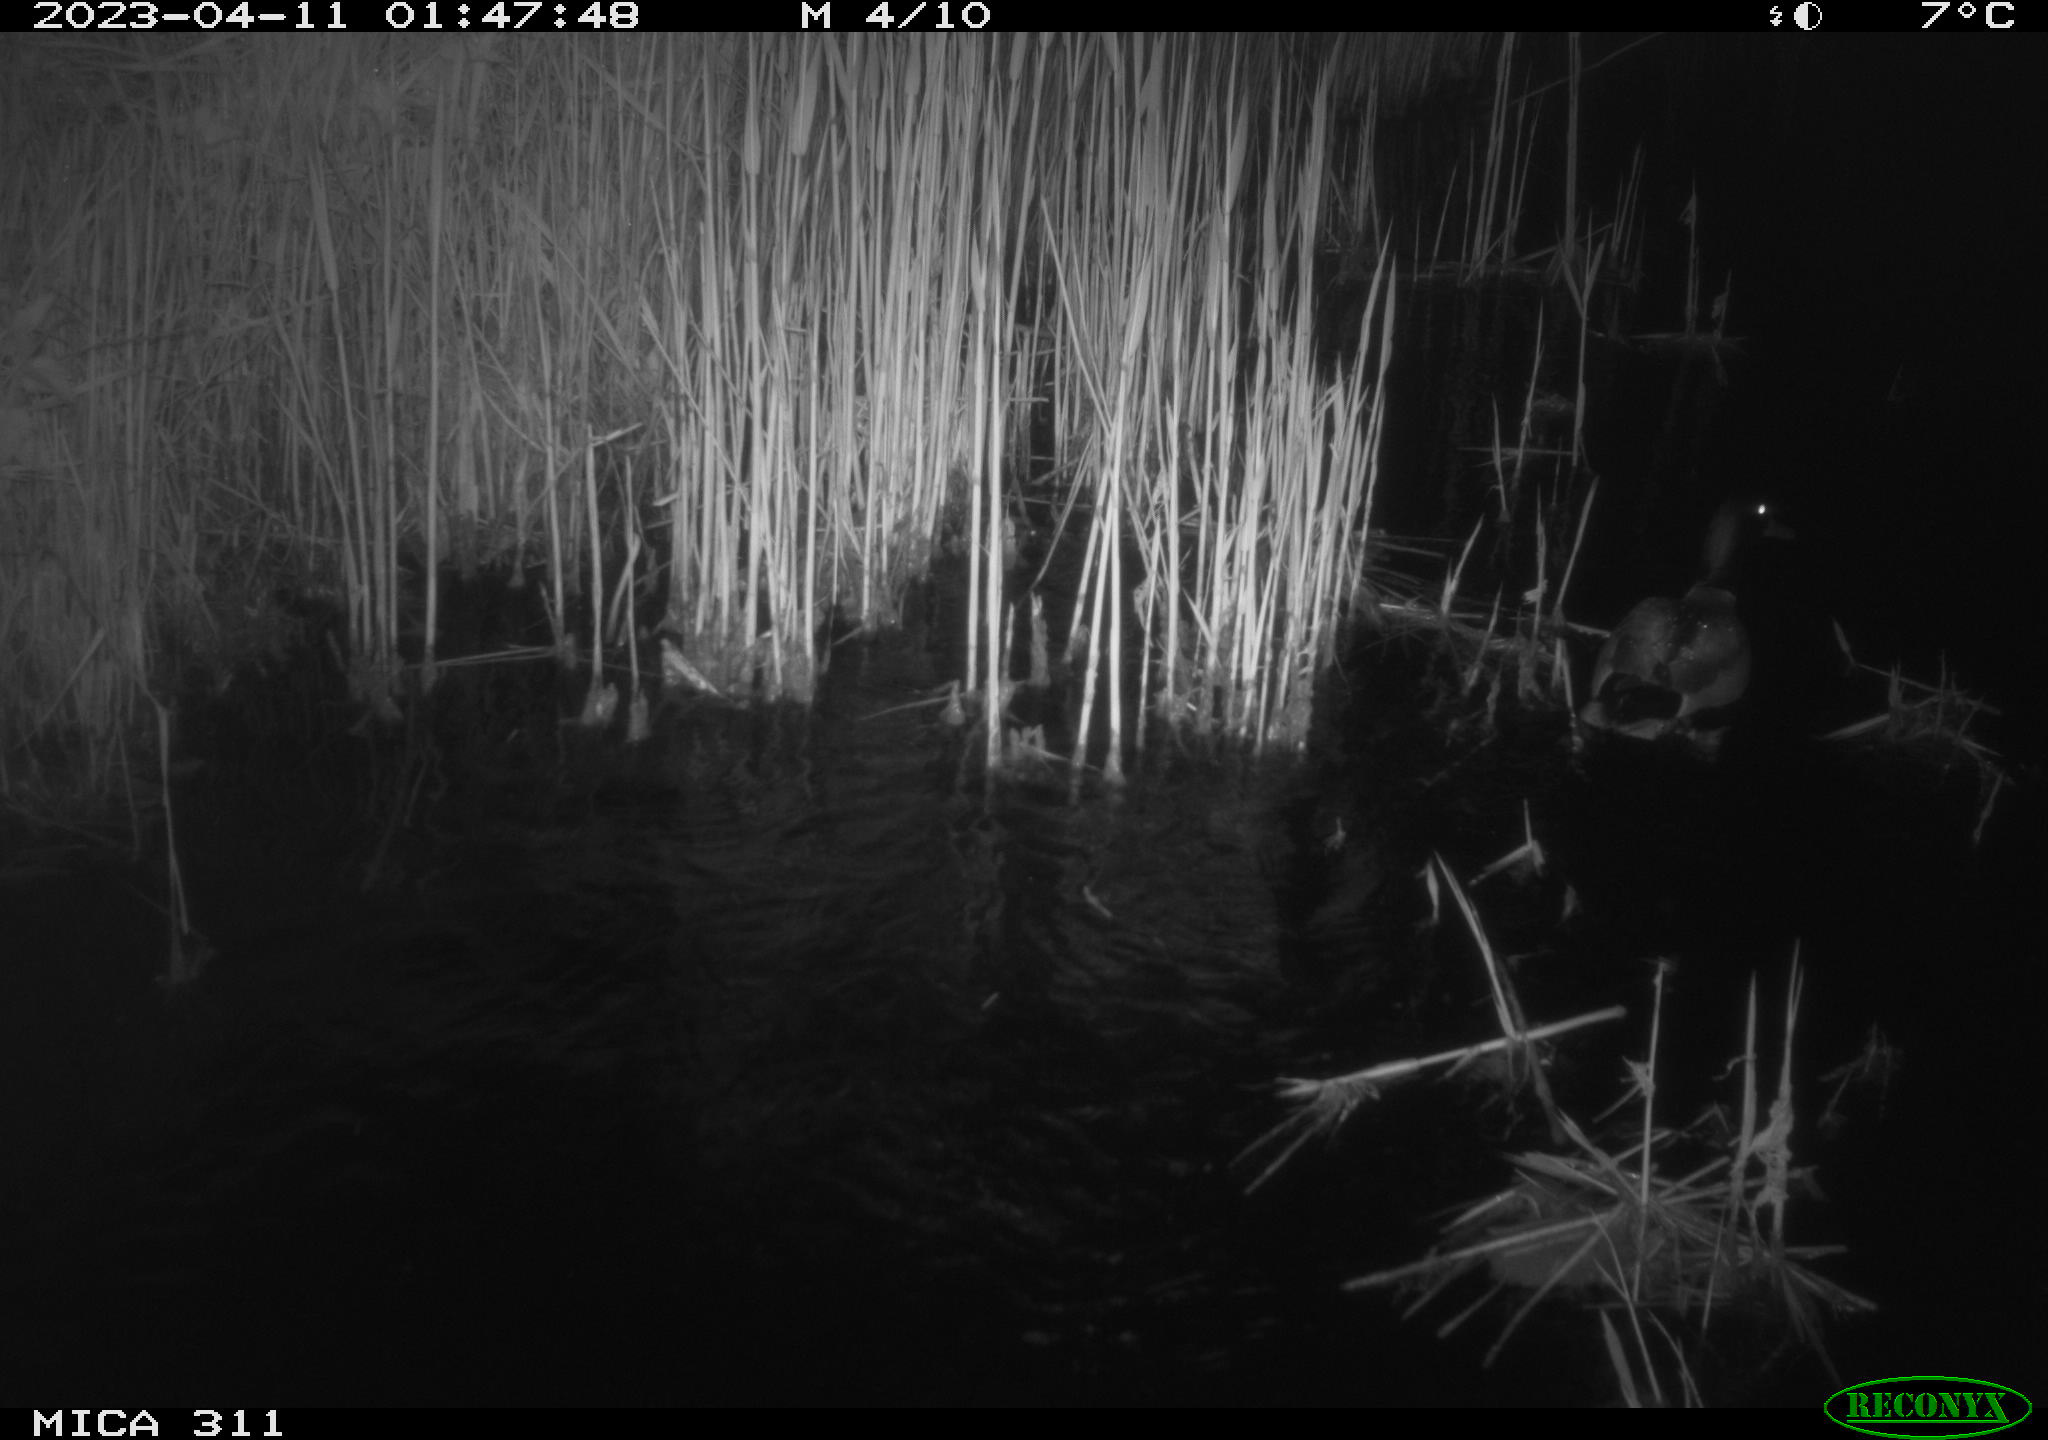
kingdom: Animalia
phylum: Chordata
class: Aves
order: Anseriformes
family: Anatidae
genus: Anas
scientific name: Anas
